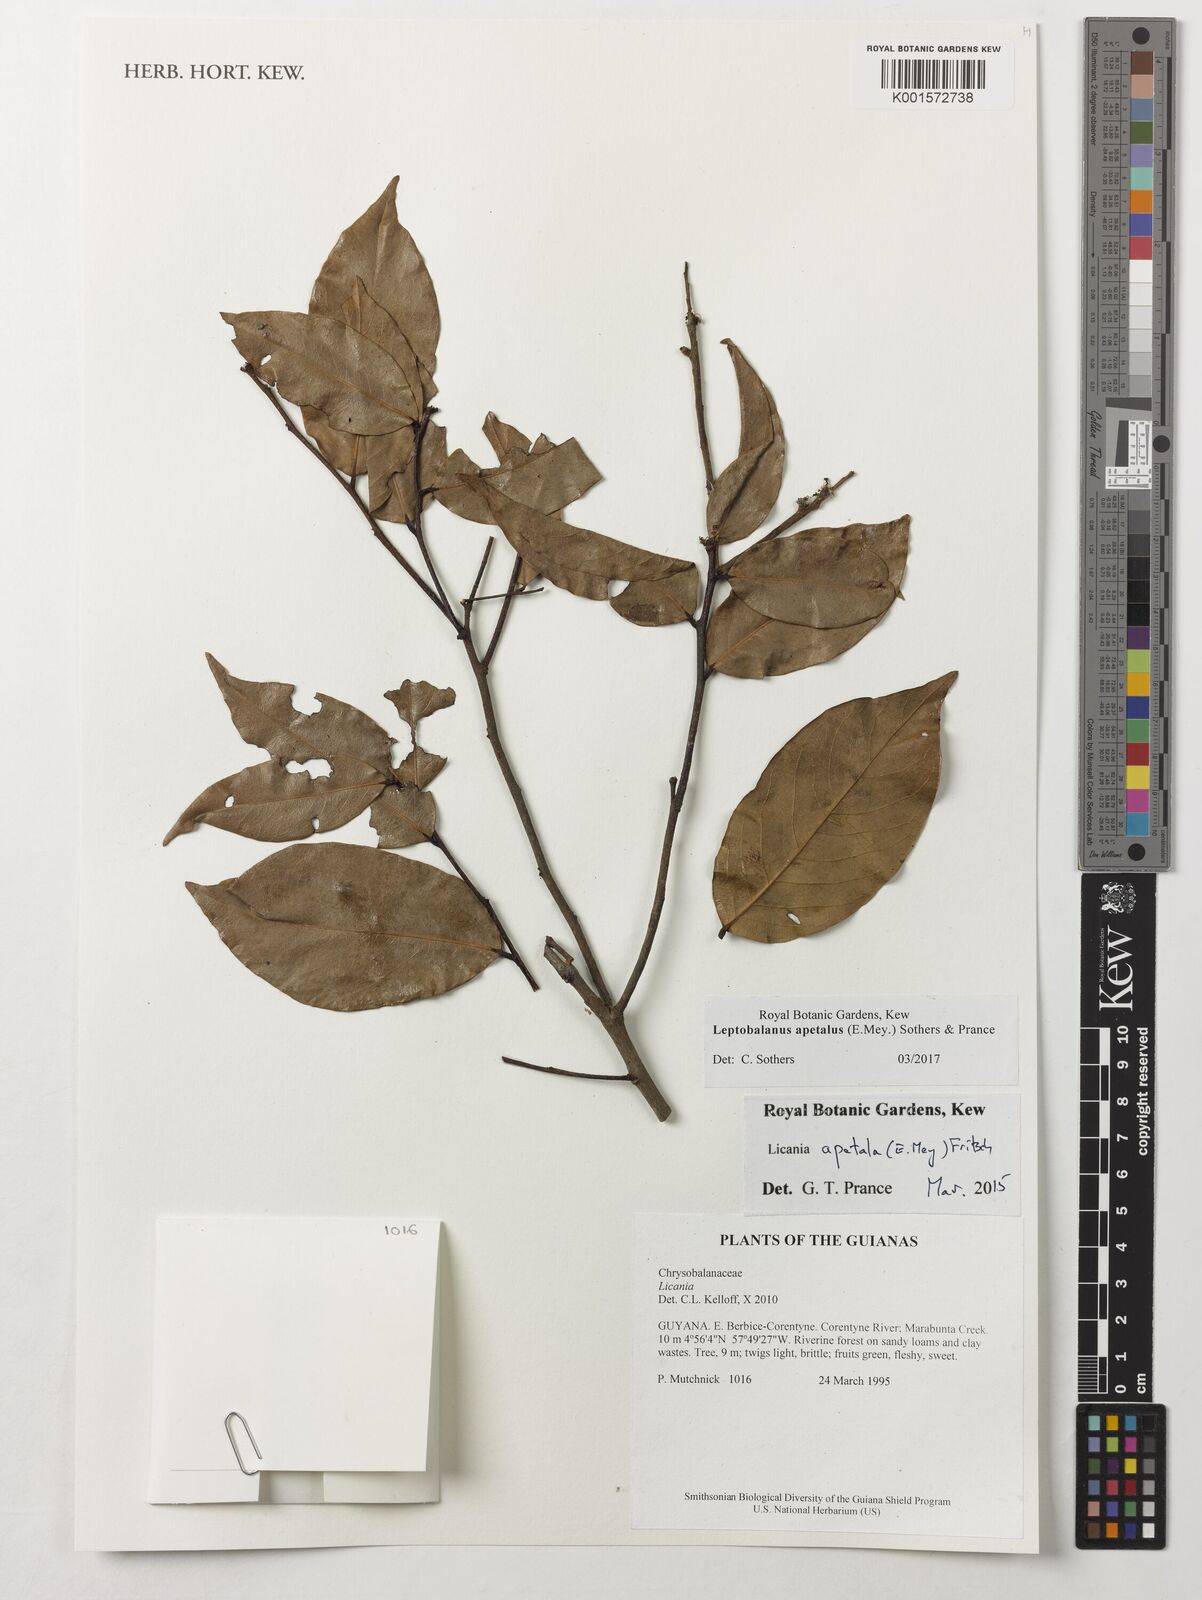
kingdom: Plantae
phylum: Tracheophyta
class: Magnoliopsida
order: Malpighiales
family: Chrysobalanaceae
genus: Leptobalanus
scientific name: Leptobalanus apetalus
